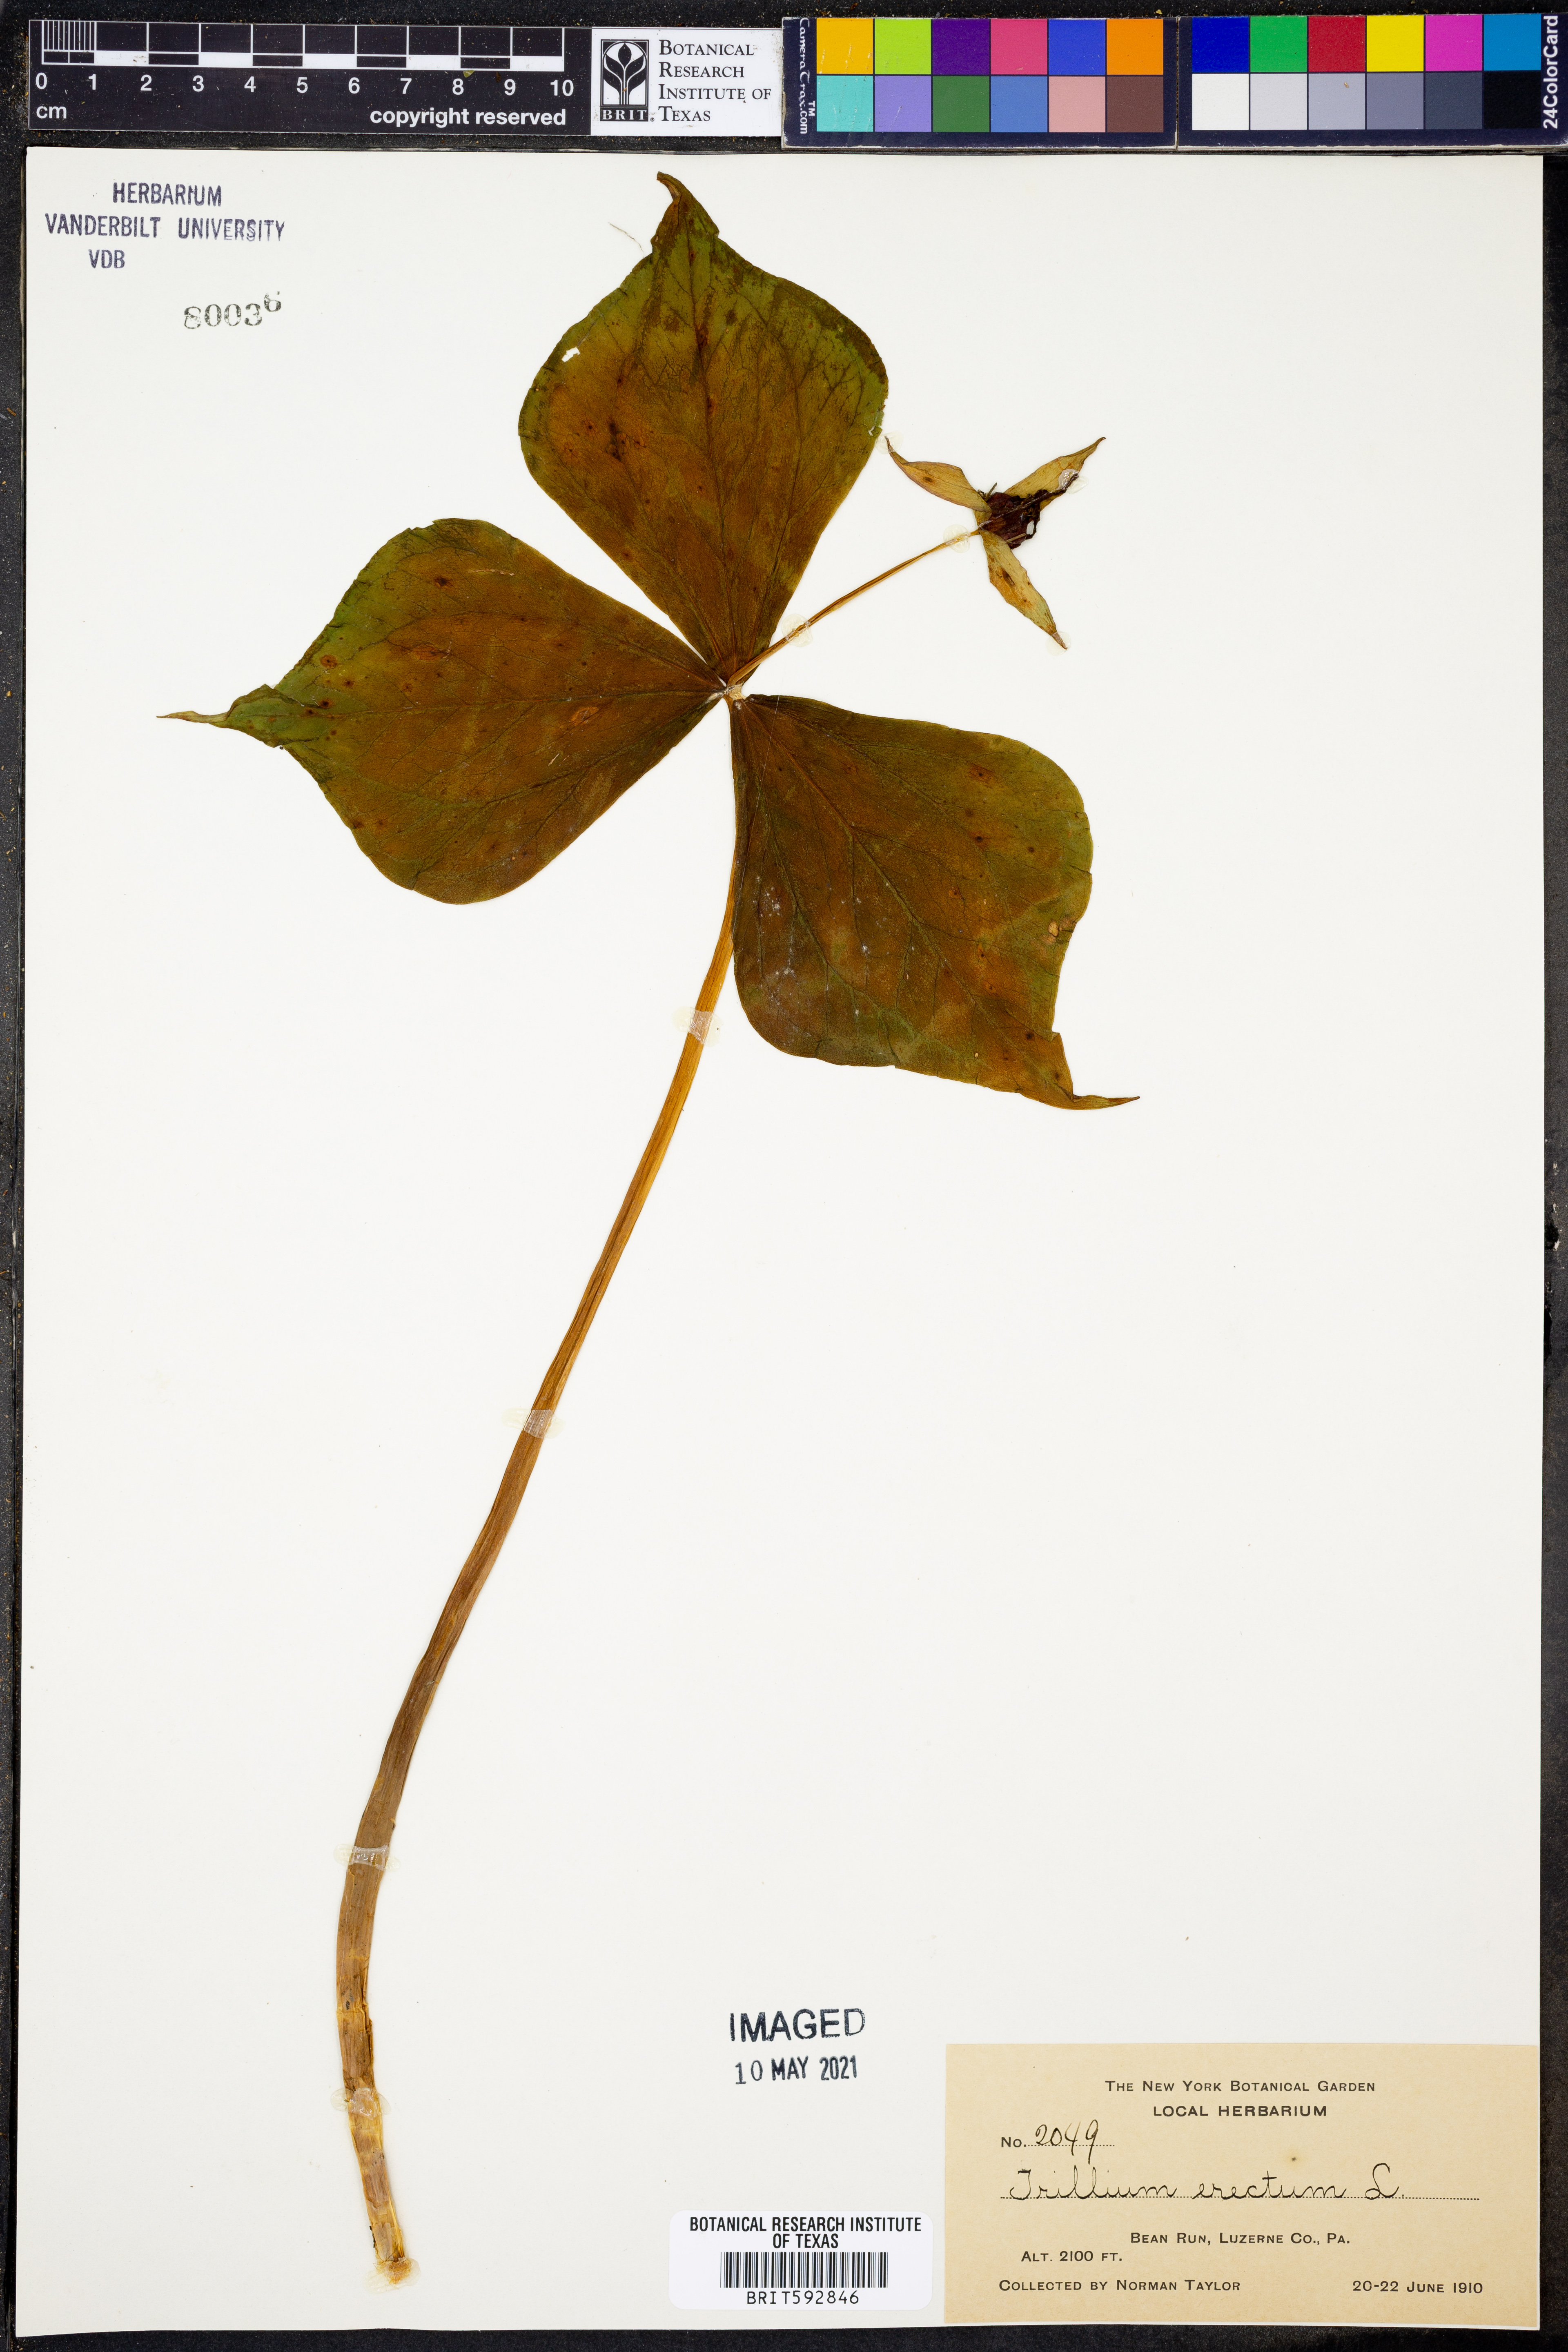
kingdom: Plantae
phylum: Tracheophyta
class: Liliopsida
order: Liliales
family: Melanthiaceae
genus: Trillium
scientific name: Trillium erectum
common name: Purple trillium
